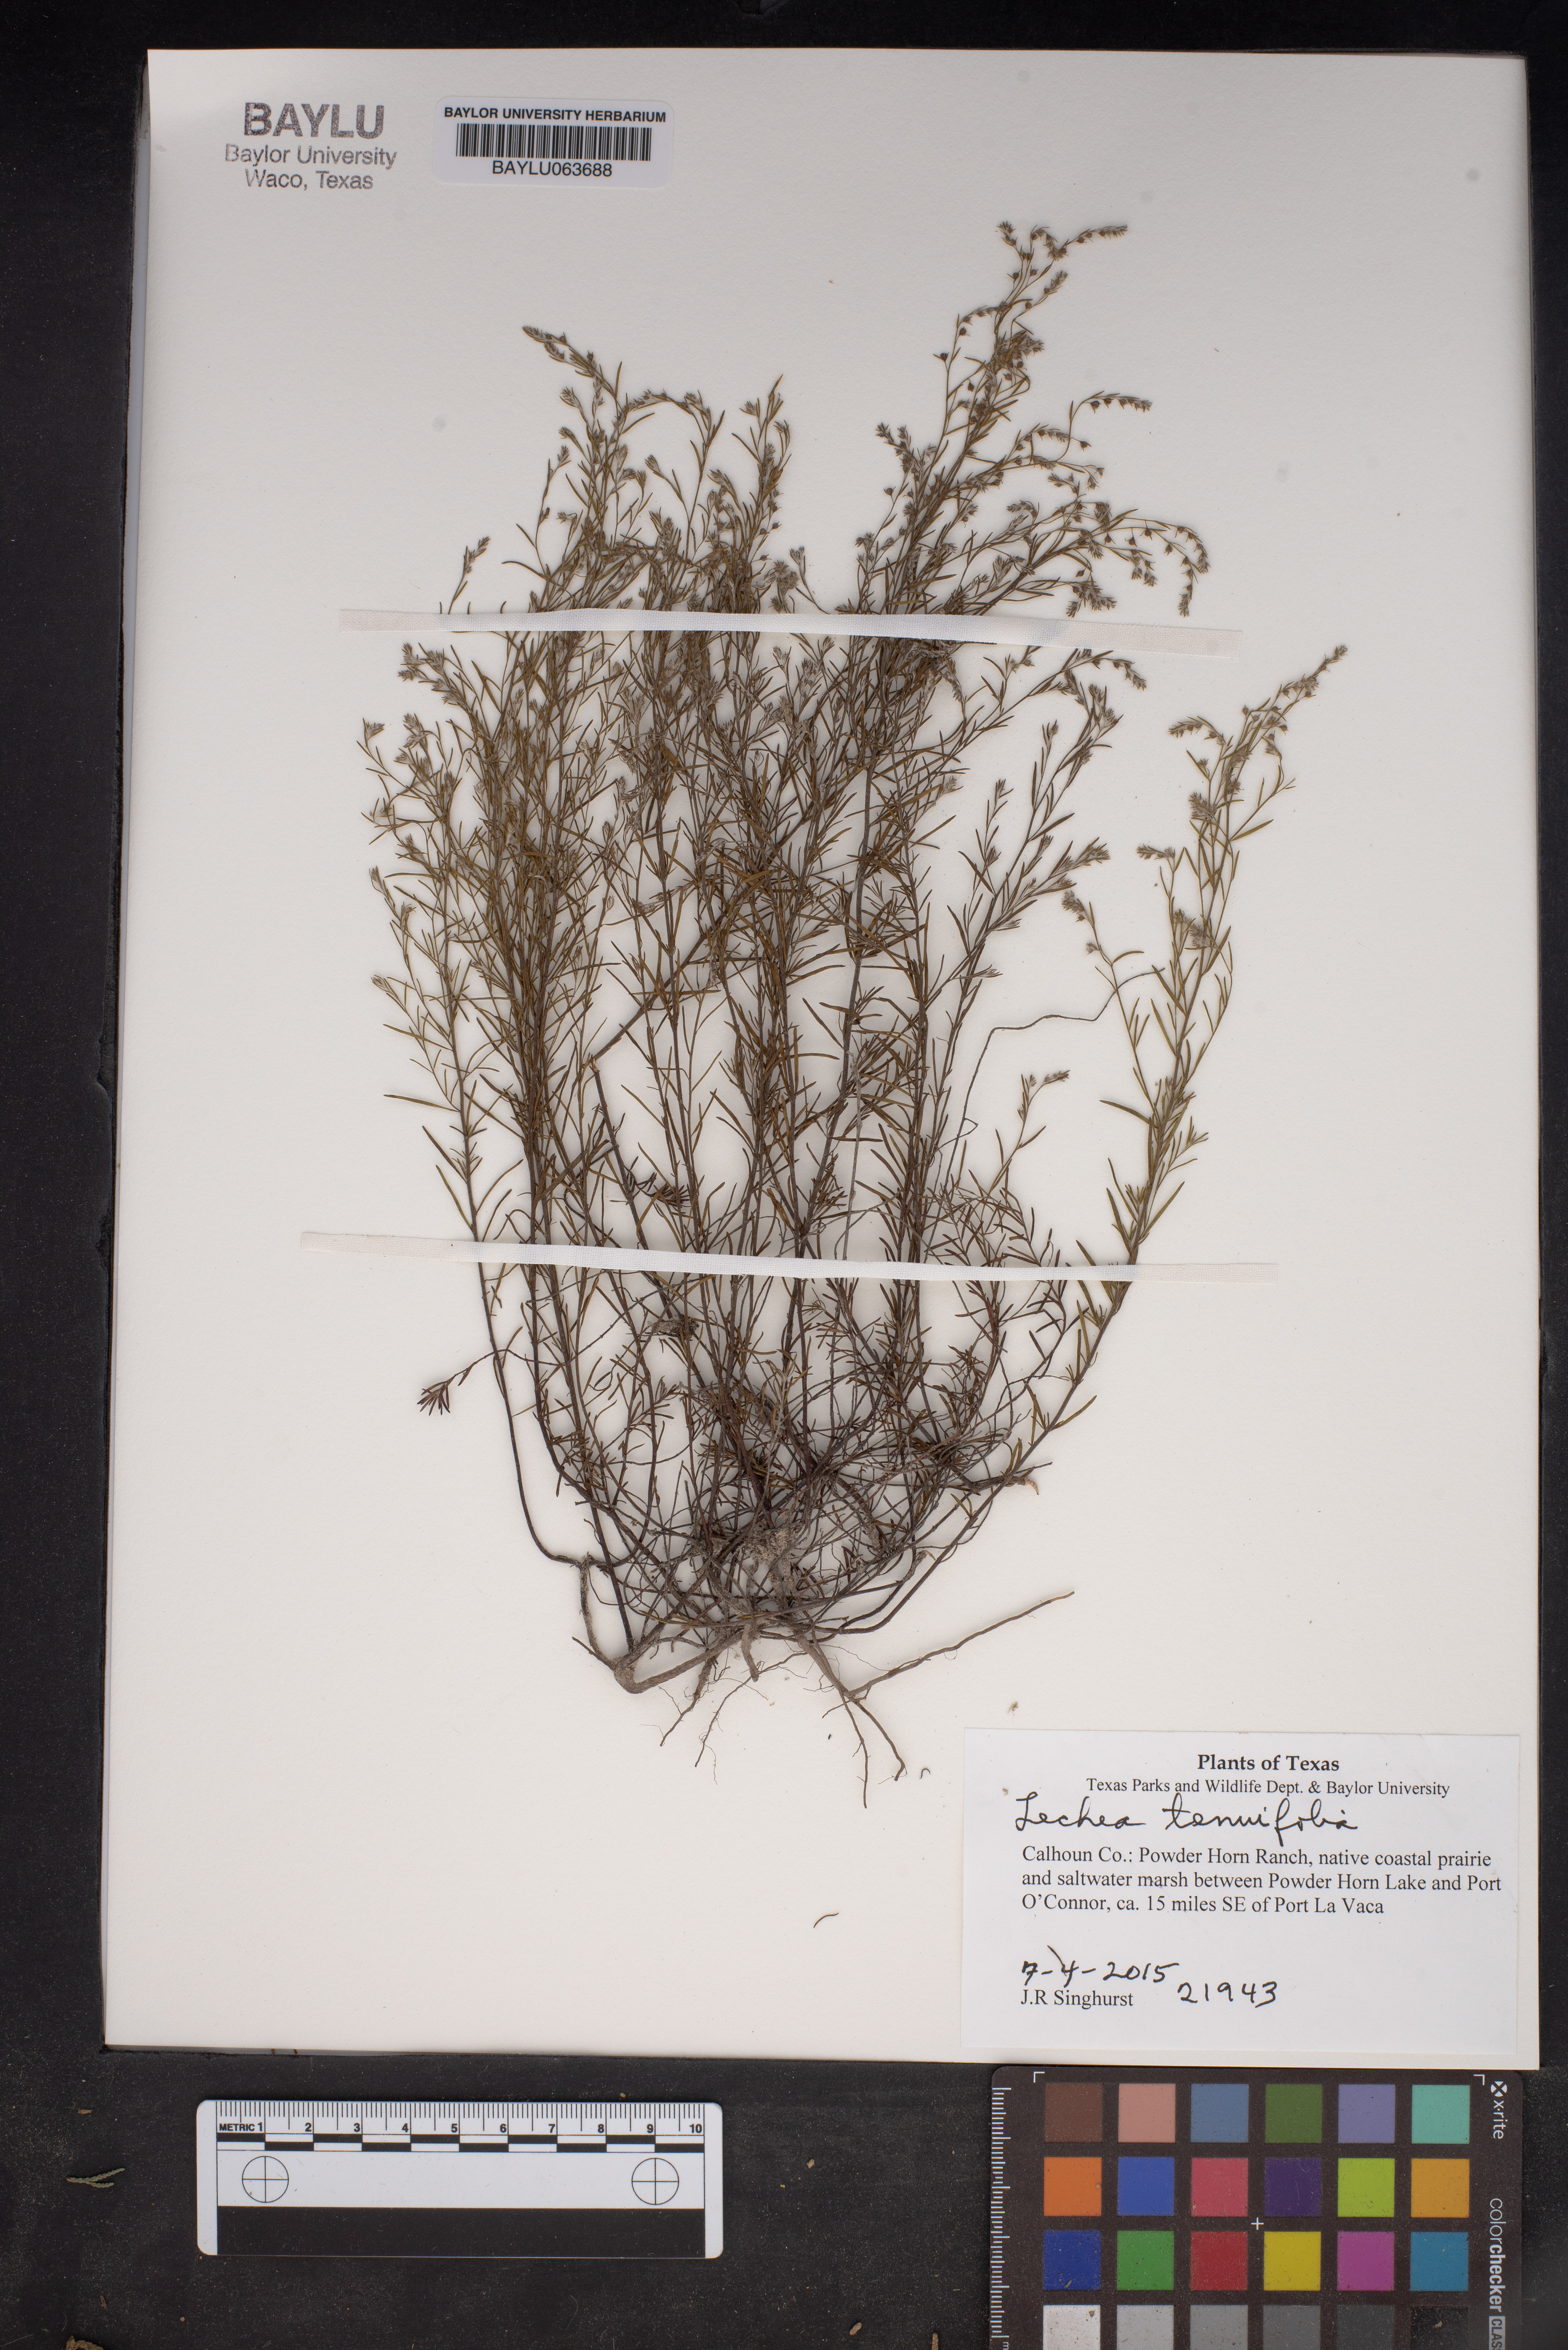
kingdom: Plantae
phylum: Tracheophyta
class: Magnoliopsida
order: Malvales
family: Cistaceae
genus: Lechea
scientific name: Lechea tenuifolia
